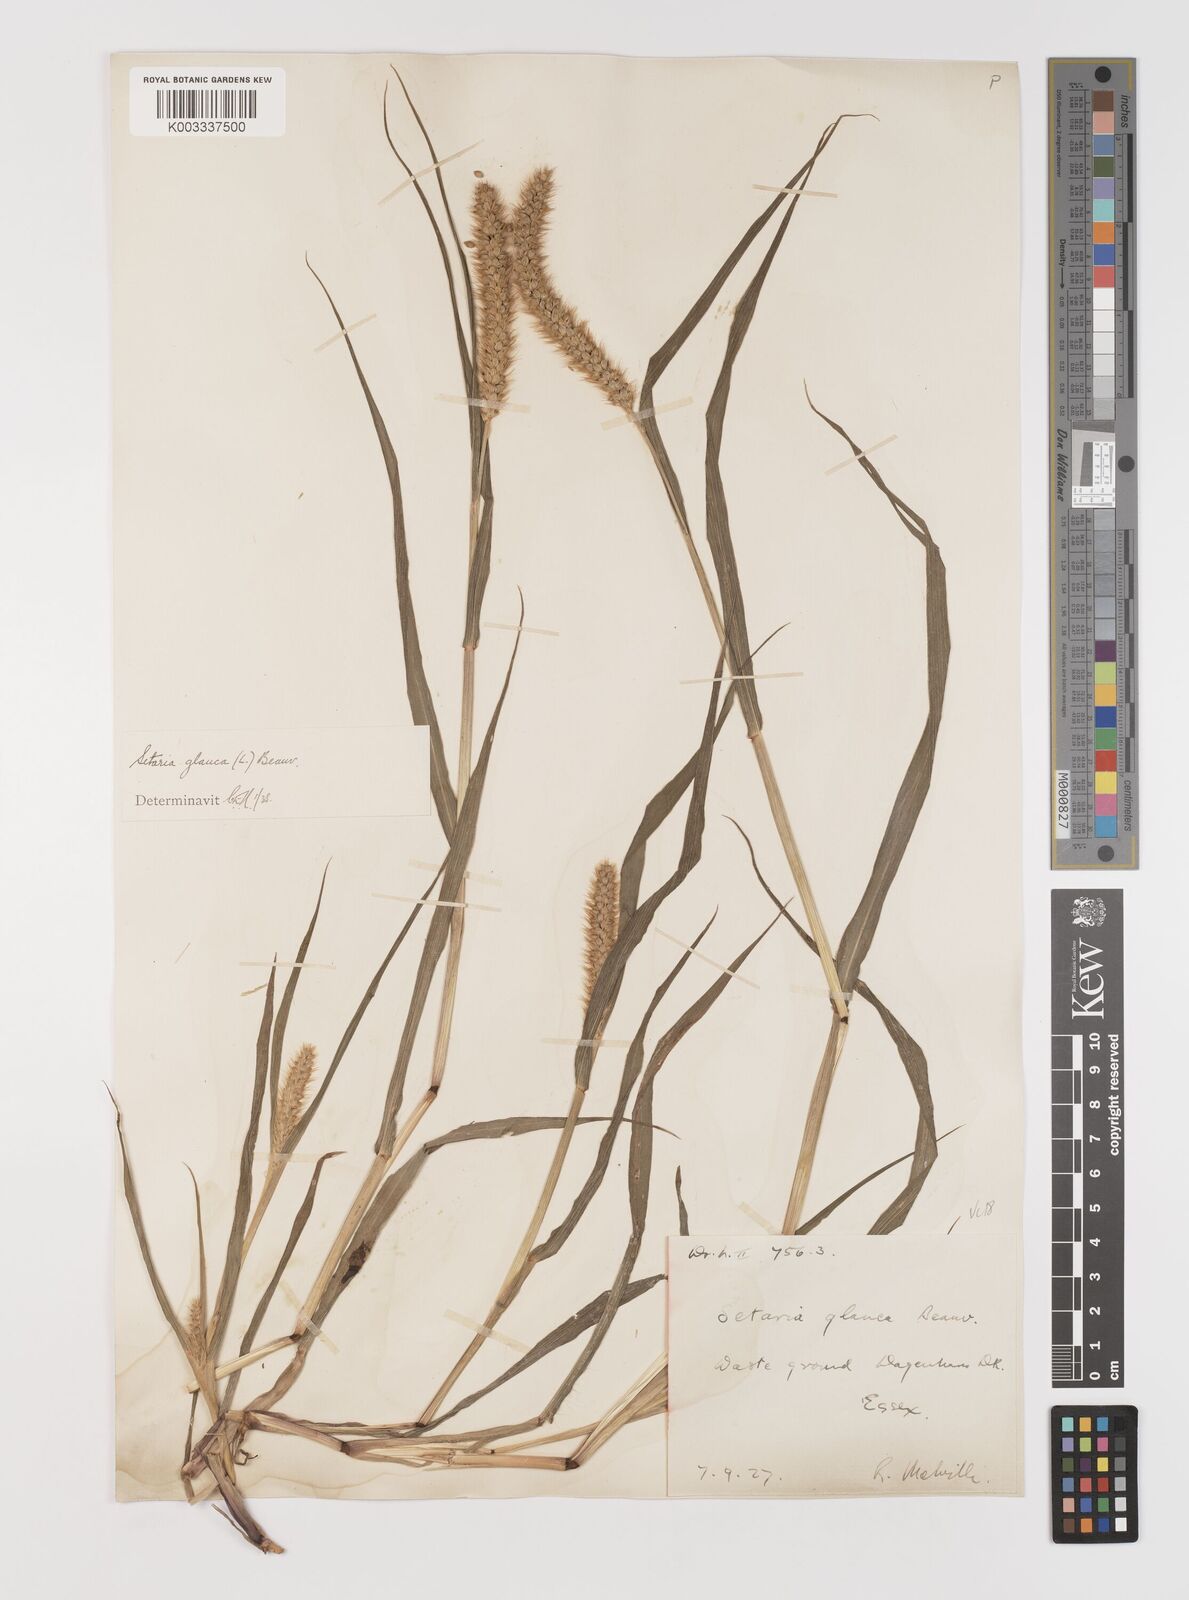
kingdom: Plantae
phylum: Tracheophyta
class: Liliopsida
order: Poales
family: Poaceae
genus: Setaria
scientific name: Setaria pumila
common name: Yellow bristle-grass
